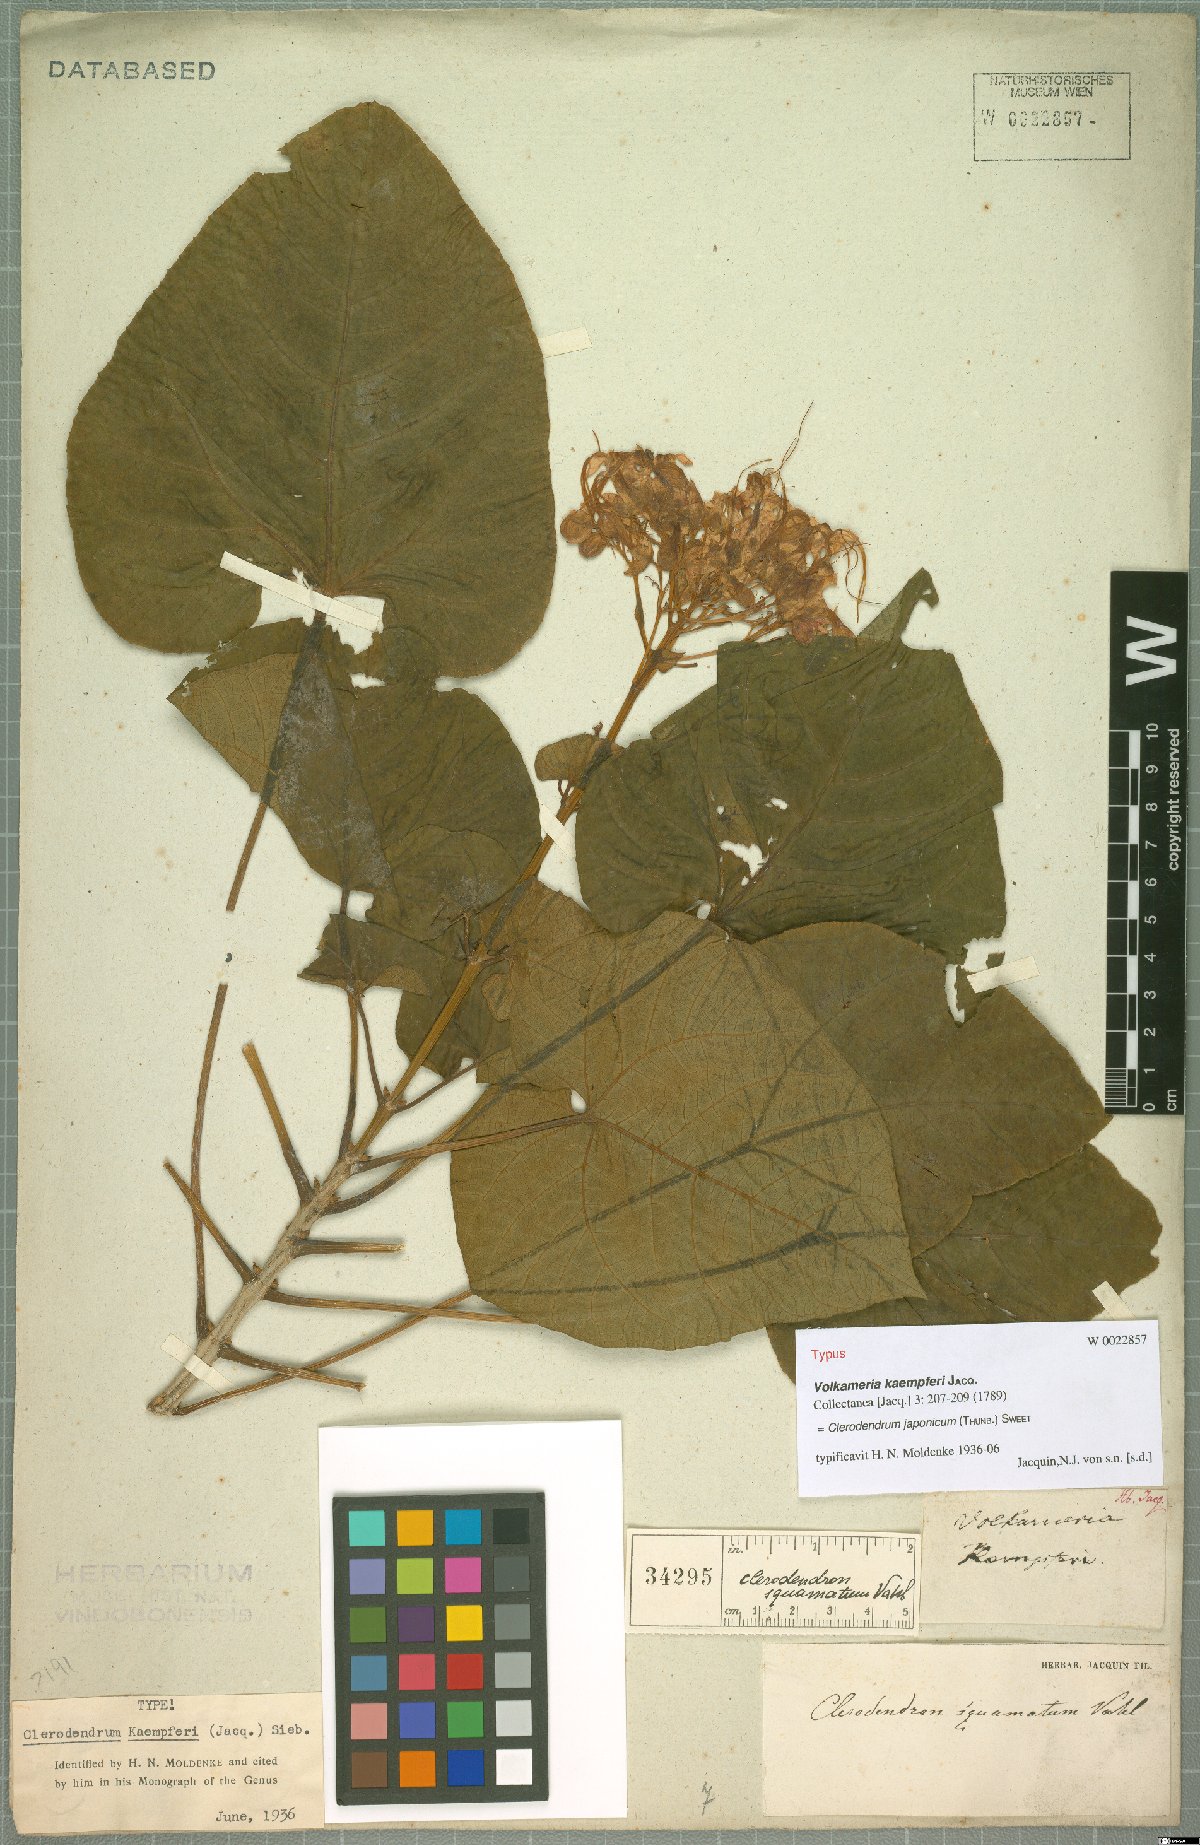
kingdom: Plantae
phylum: Tracheophyta
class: Magnoliopsida
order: Lamiales
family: Lamiaceae
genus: Clerodendrum
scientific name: Clerodendrum japonicum
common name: Japanese glorybower
